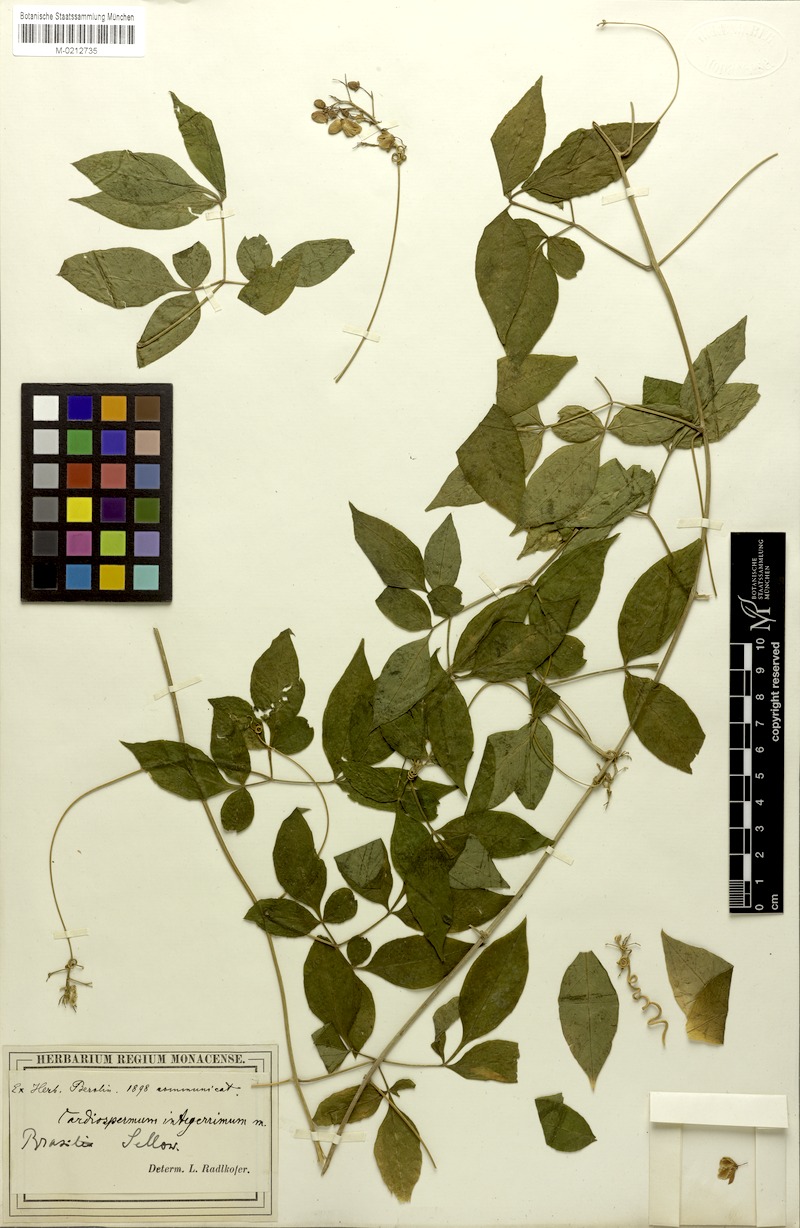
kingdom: Plantae
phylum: Tracheophyta
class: Magnoliopsida
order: Sapindales
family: Sapindaceae
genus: Cardiospermum
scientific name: Cardiospermum integerrimum
